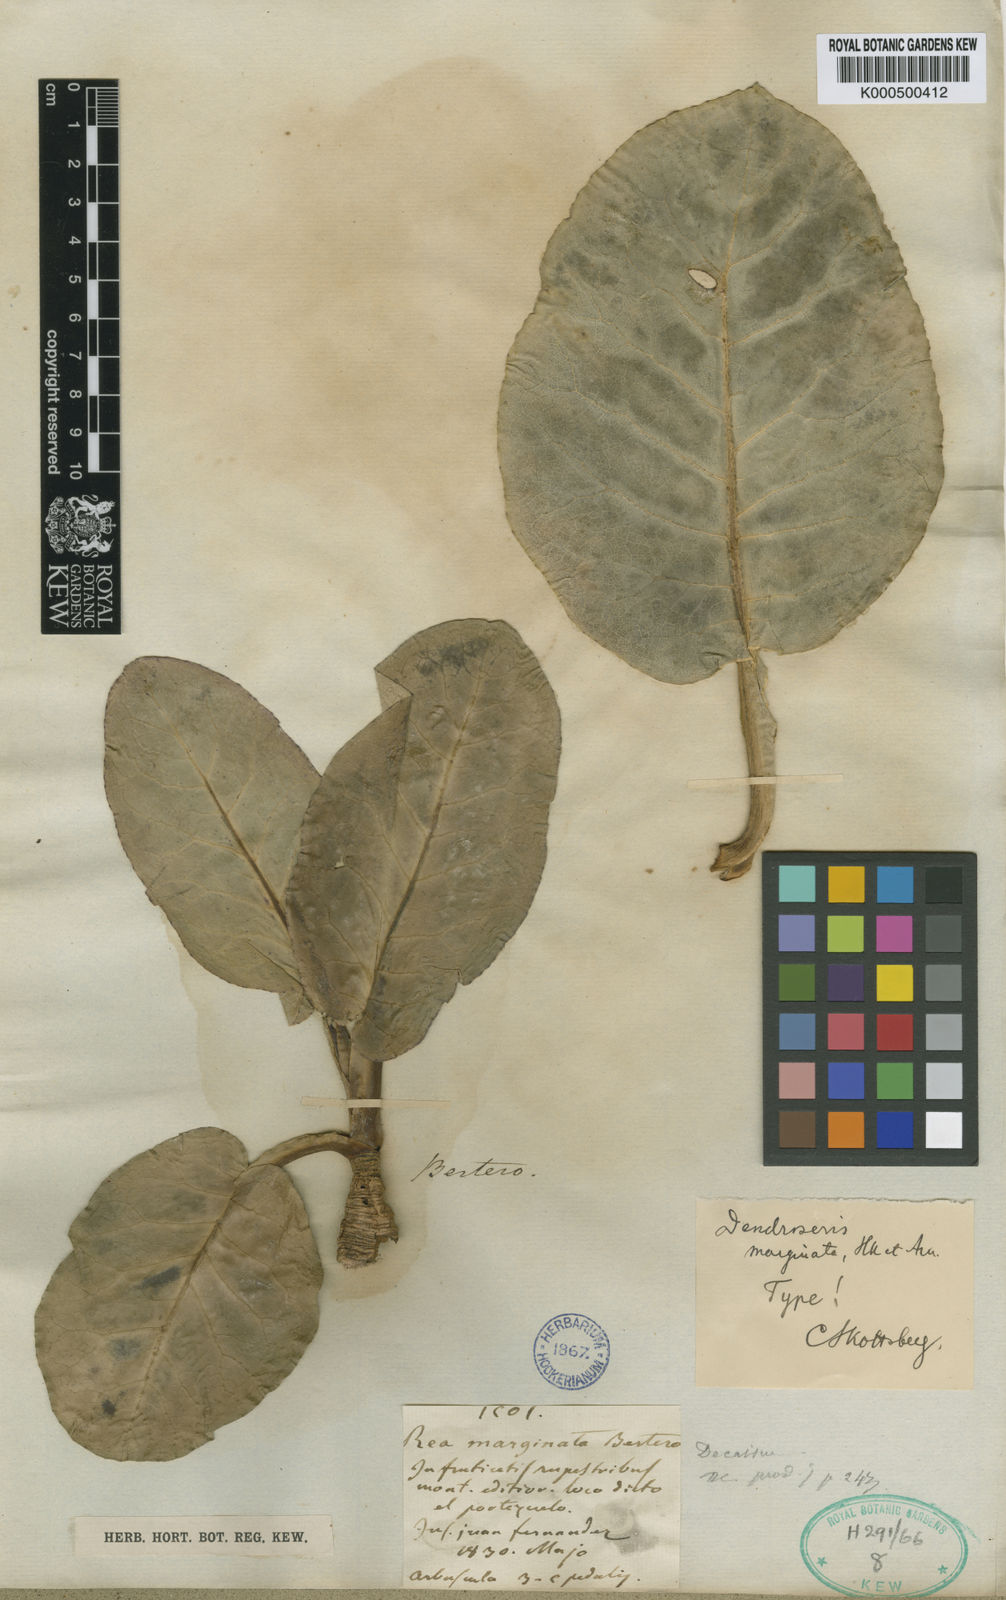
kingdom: Plantae
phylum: Tracheophyta
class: Magnoliopsida
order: Asterales
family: Asteraceae
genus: Sonchus
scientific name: Sonchus marginatus
